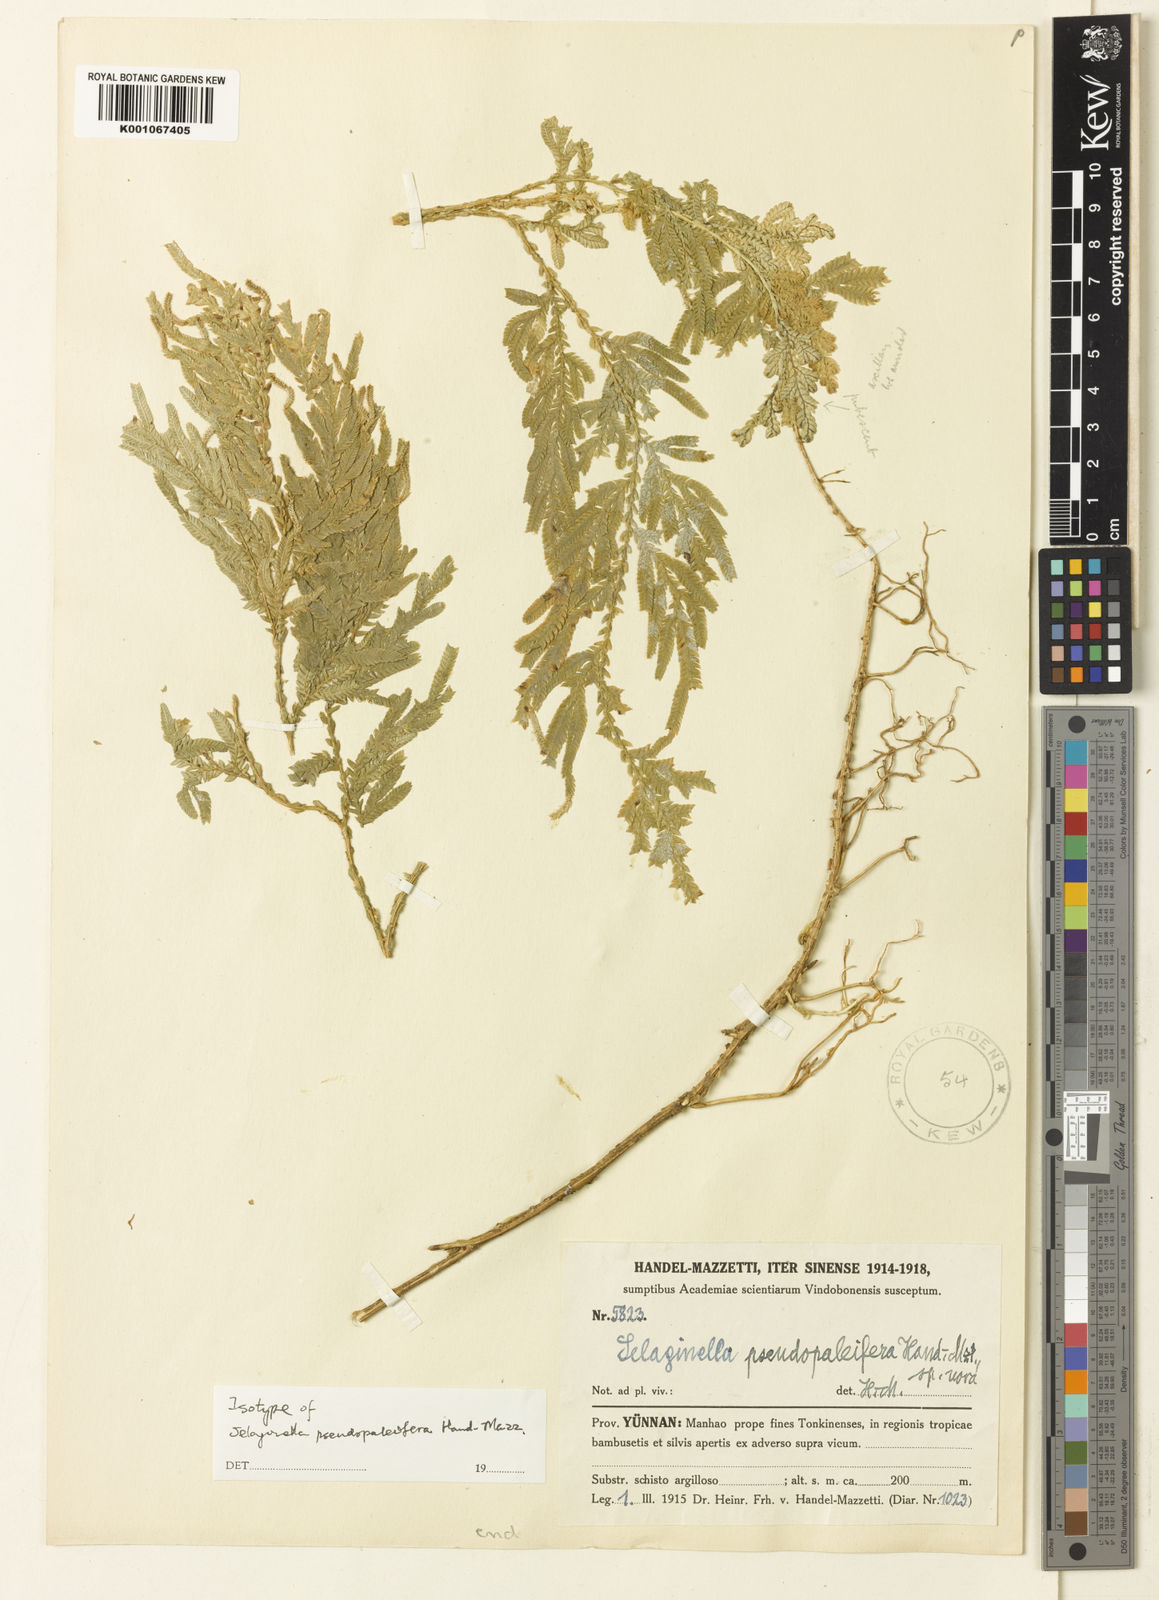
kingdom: Plantae
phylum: Tracheophyta
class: Lycopodiopsida
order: Selaginellales
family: Selaginellaceae
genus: Selaginella
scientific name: Selaginella pseudopaleifera
